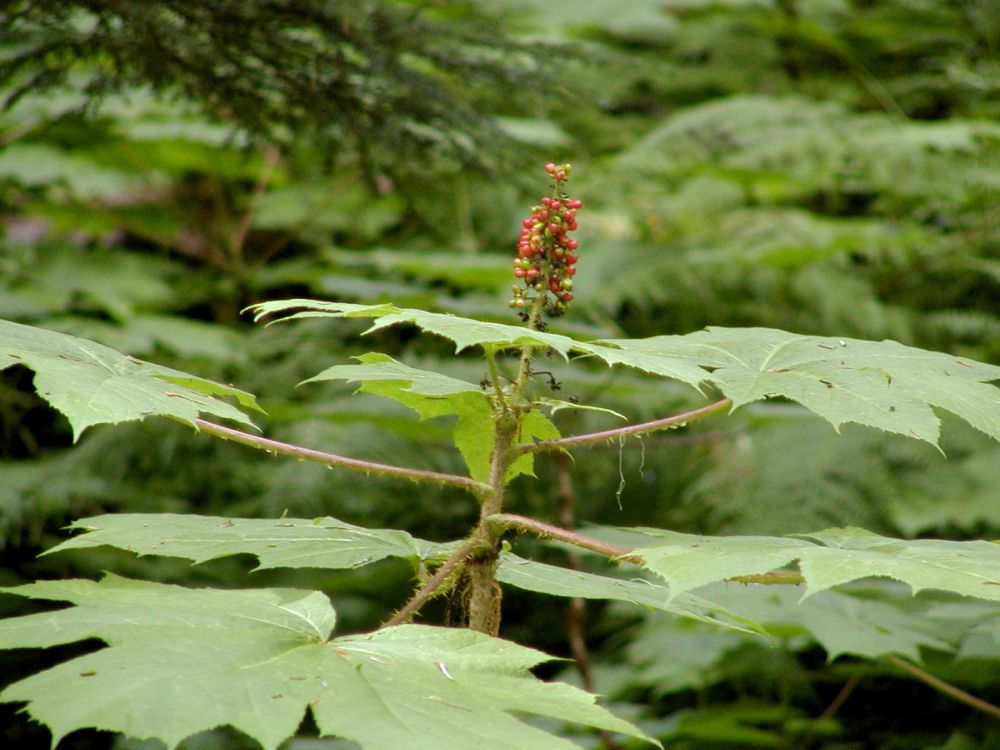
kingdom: Plantae
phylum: Tracheophyta
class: Magnoliopsida
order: Apiales
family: Araliaceae
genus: Oplopanax
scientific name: Oplopanax horridus
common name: Devil's walking-stick
